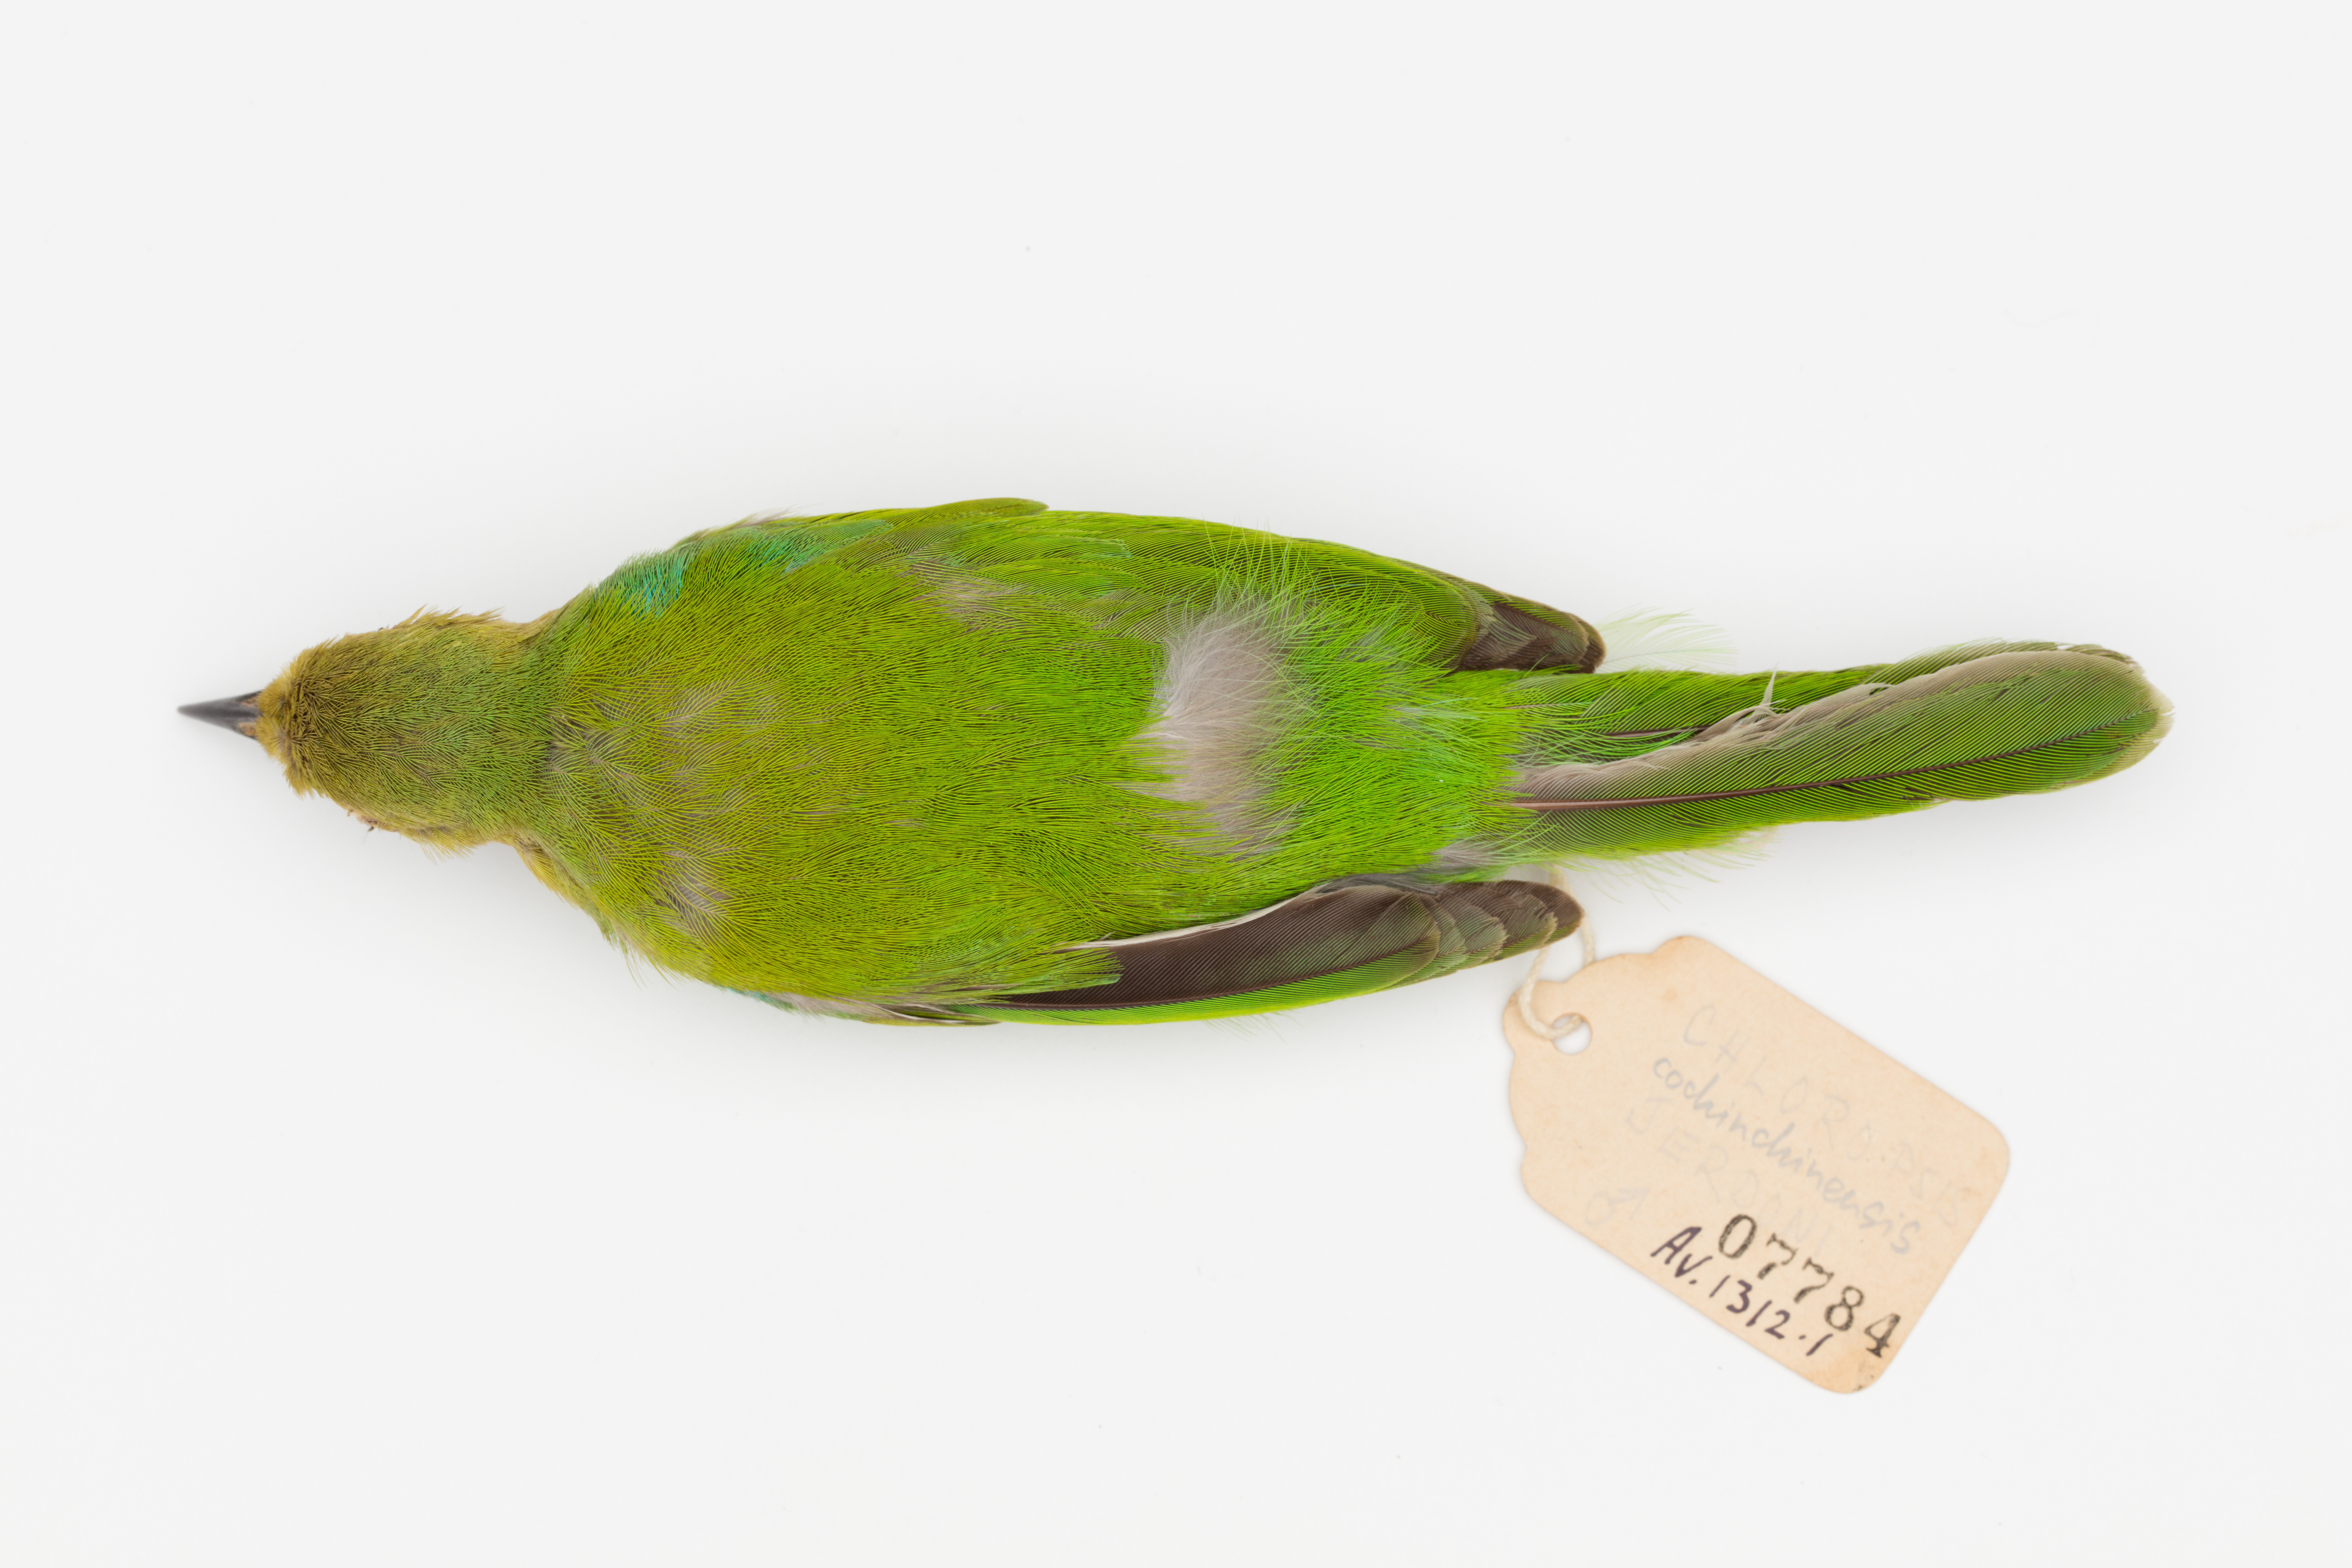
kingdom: Animalia
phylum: Chordata
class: Aves
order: Passeriformes
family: Chloropseidae
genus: Chloropsis
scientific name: Chloropsis cochinchinensis
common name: Blue-winged leafbird
